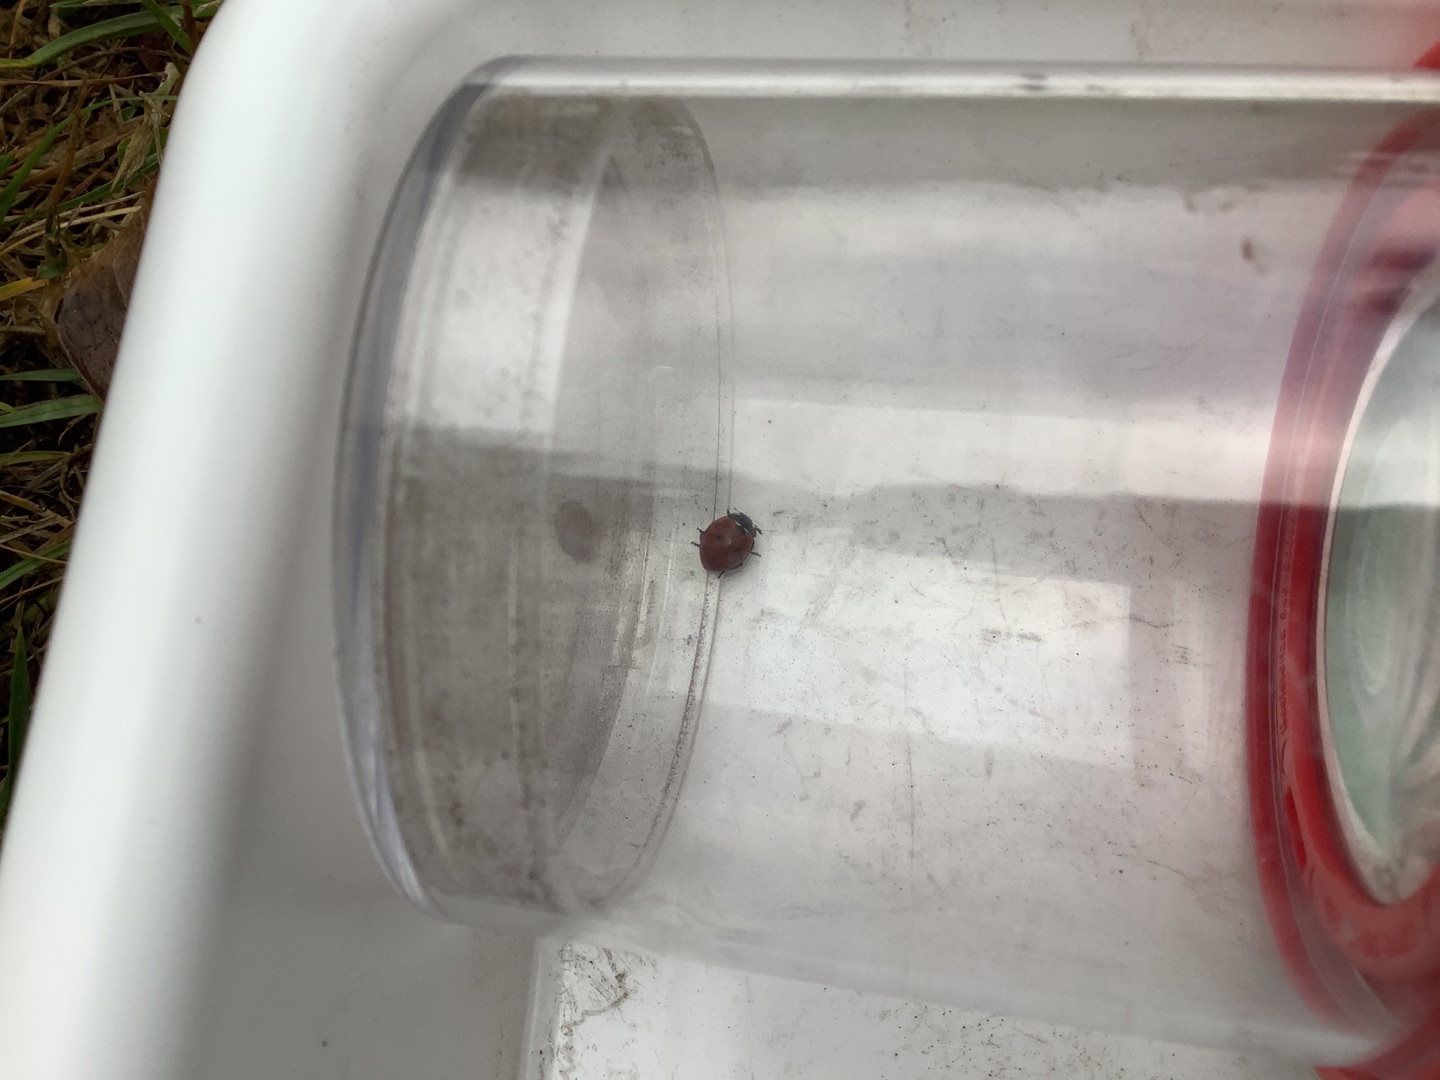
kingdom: Animalia
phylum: Arthropoda
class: Insecta
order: Coleoptera
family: Coccinellidae
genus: Coccinella
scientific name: Coccinella septempunctata
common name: Syvplettet mariehøne
